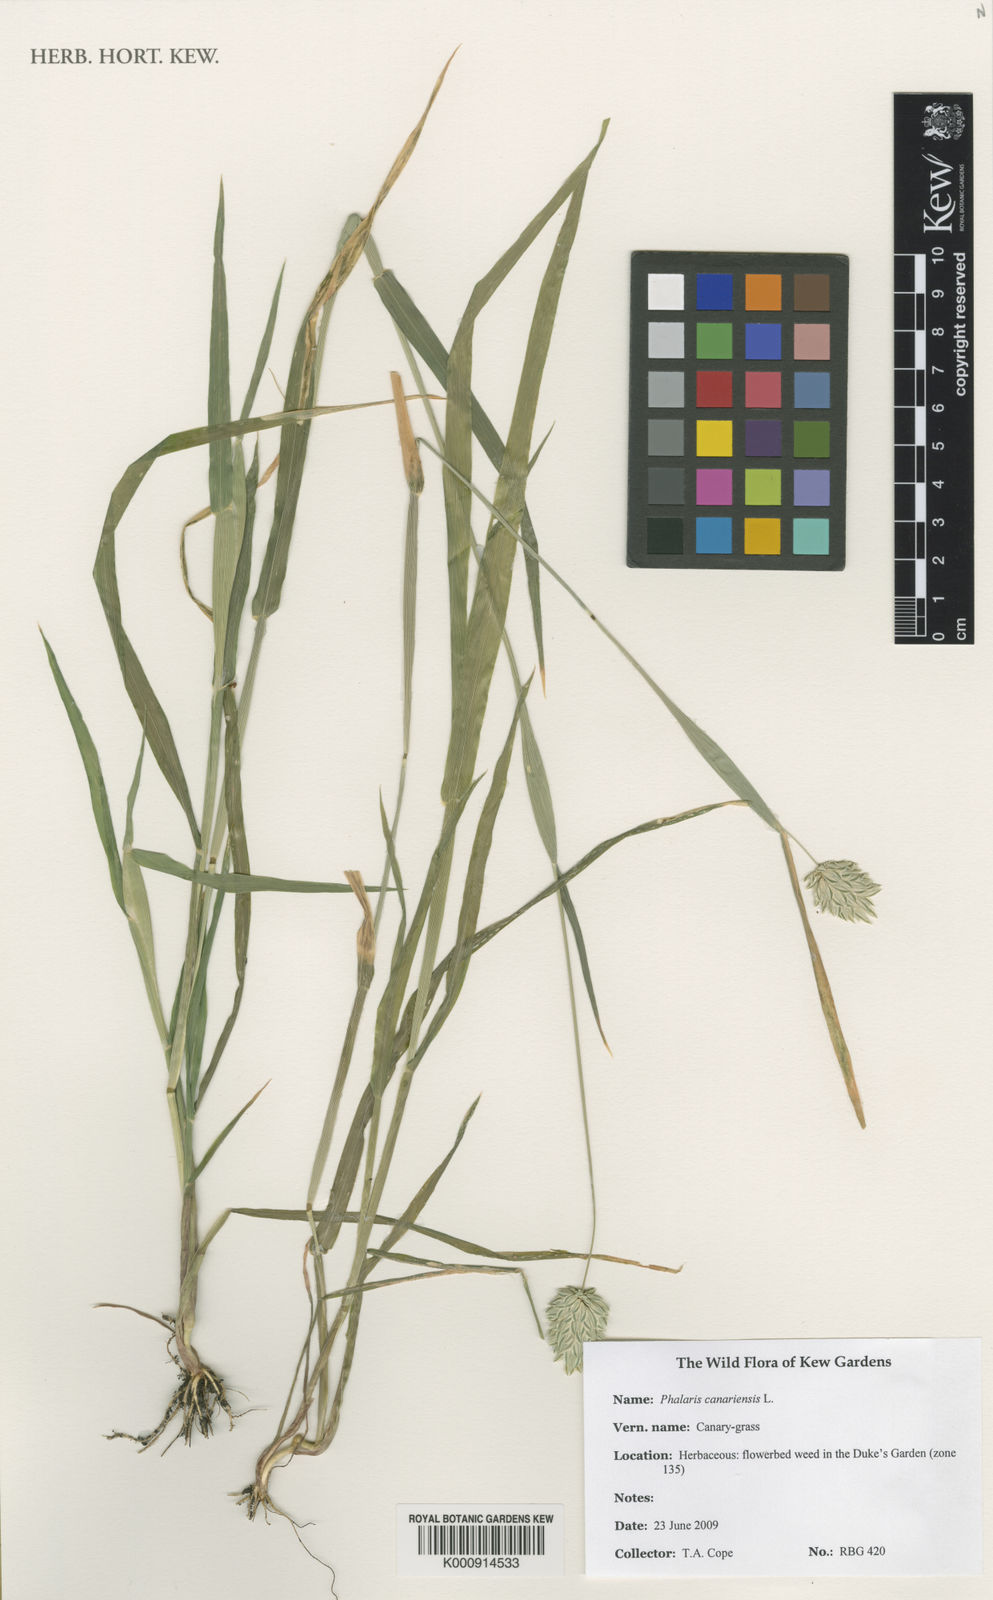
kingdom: Plantae
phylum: Tracheophyta
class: Liliopsida
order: Poales
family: Poaceae
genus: Phalaris
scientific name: Phalaris canariensis
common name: Annual canarygrass
